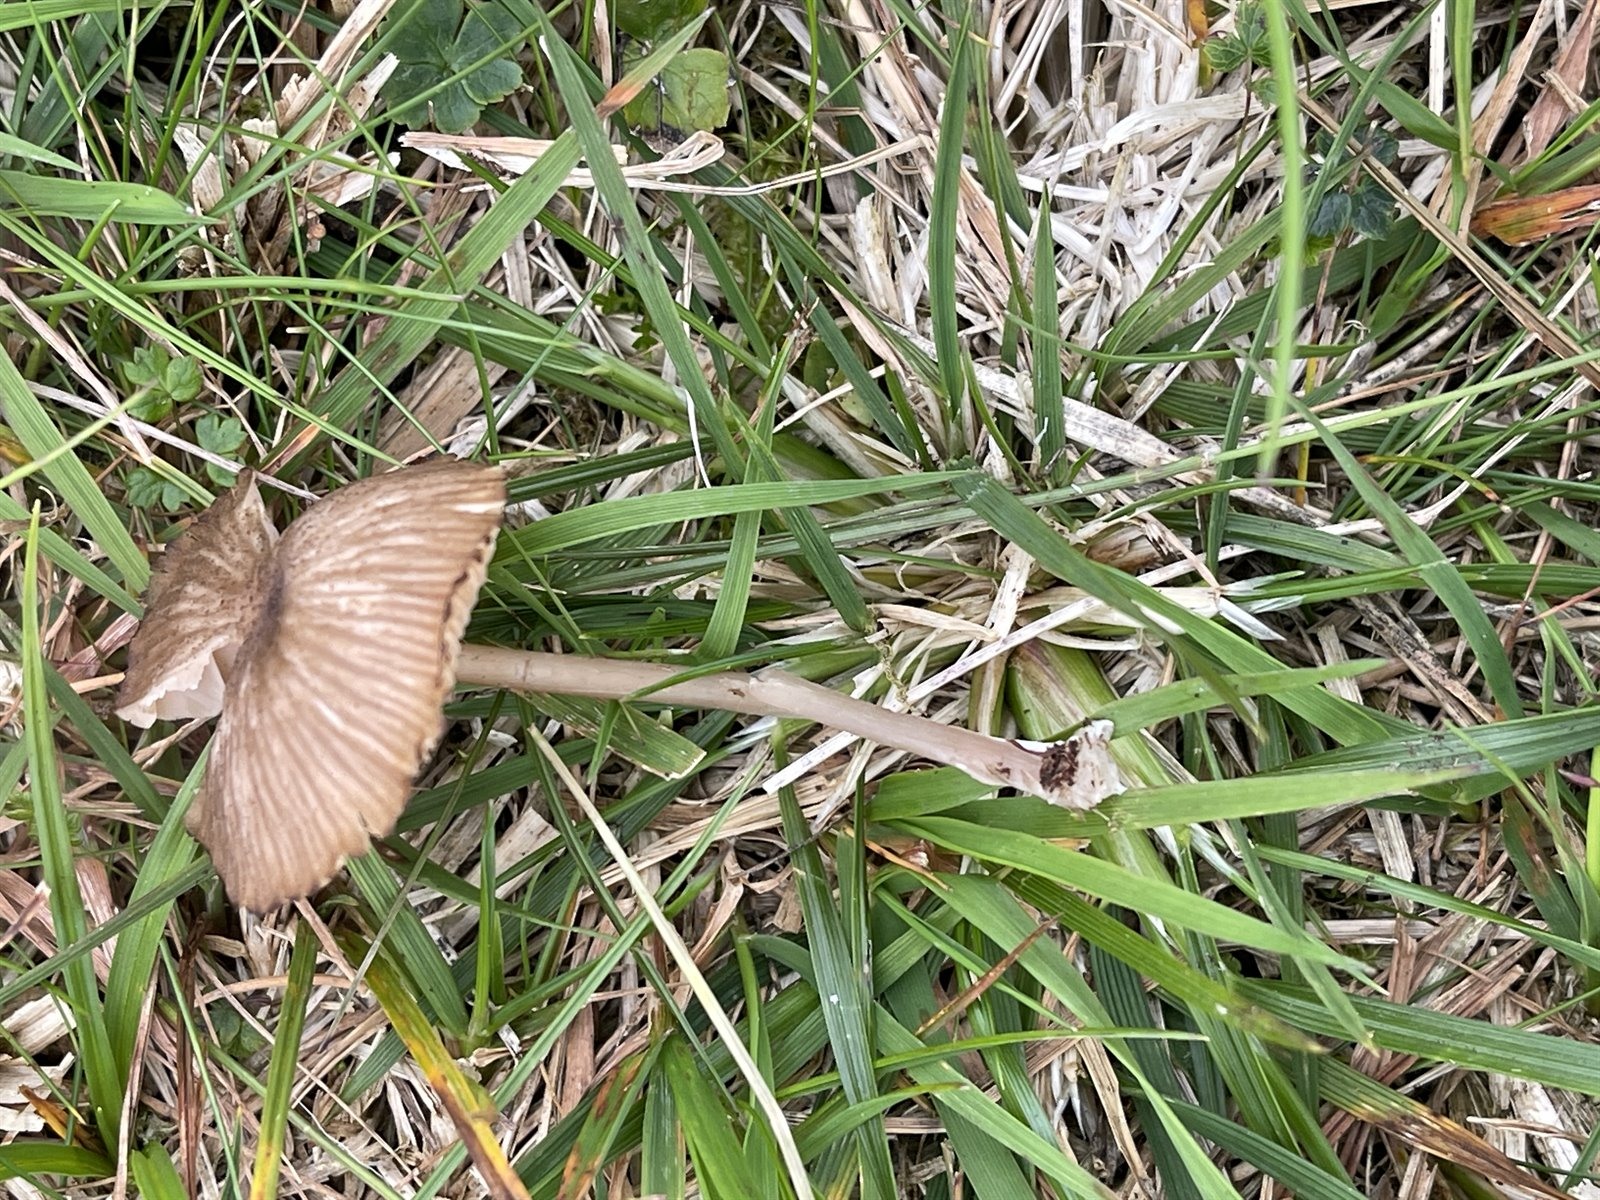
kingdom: Fungi
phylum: Basidiomycota
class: Agaricomycetes
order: Agaricales
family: Entolomataceae
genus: Entoloma
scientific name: Entoloma majusculum
